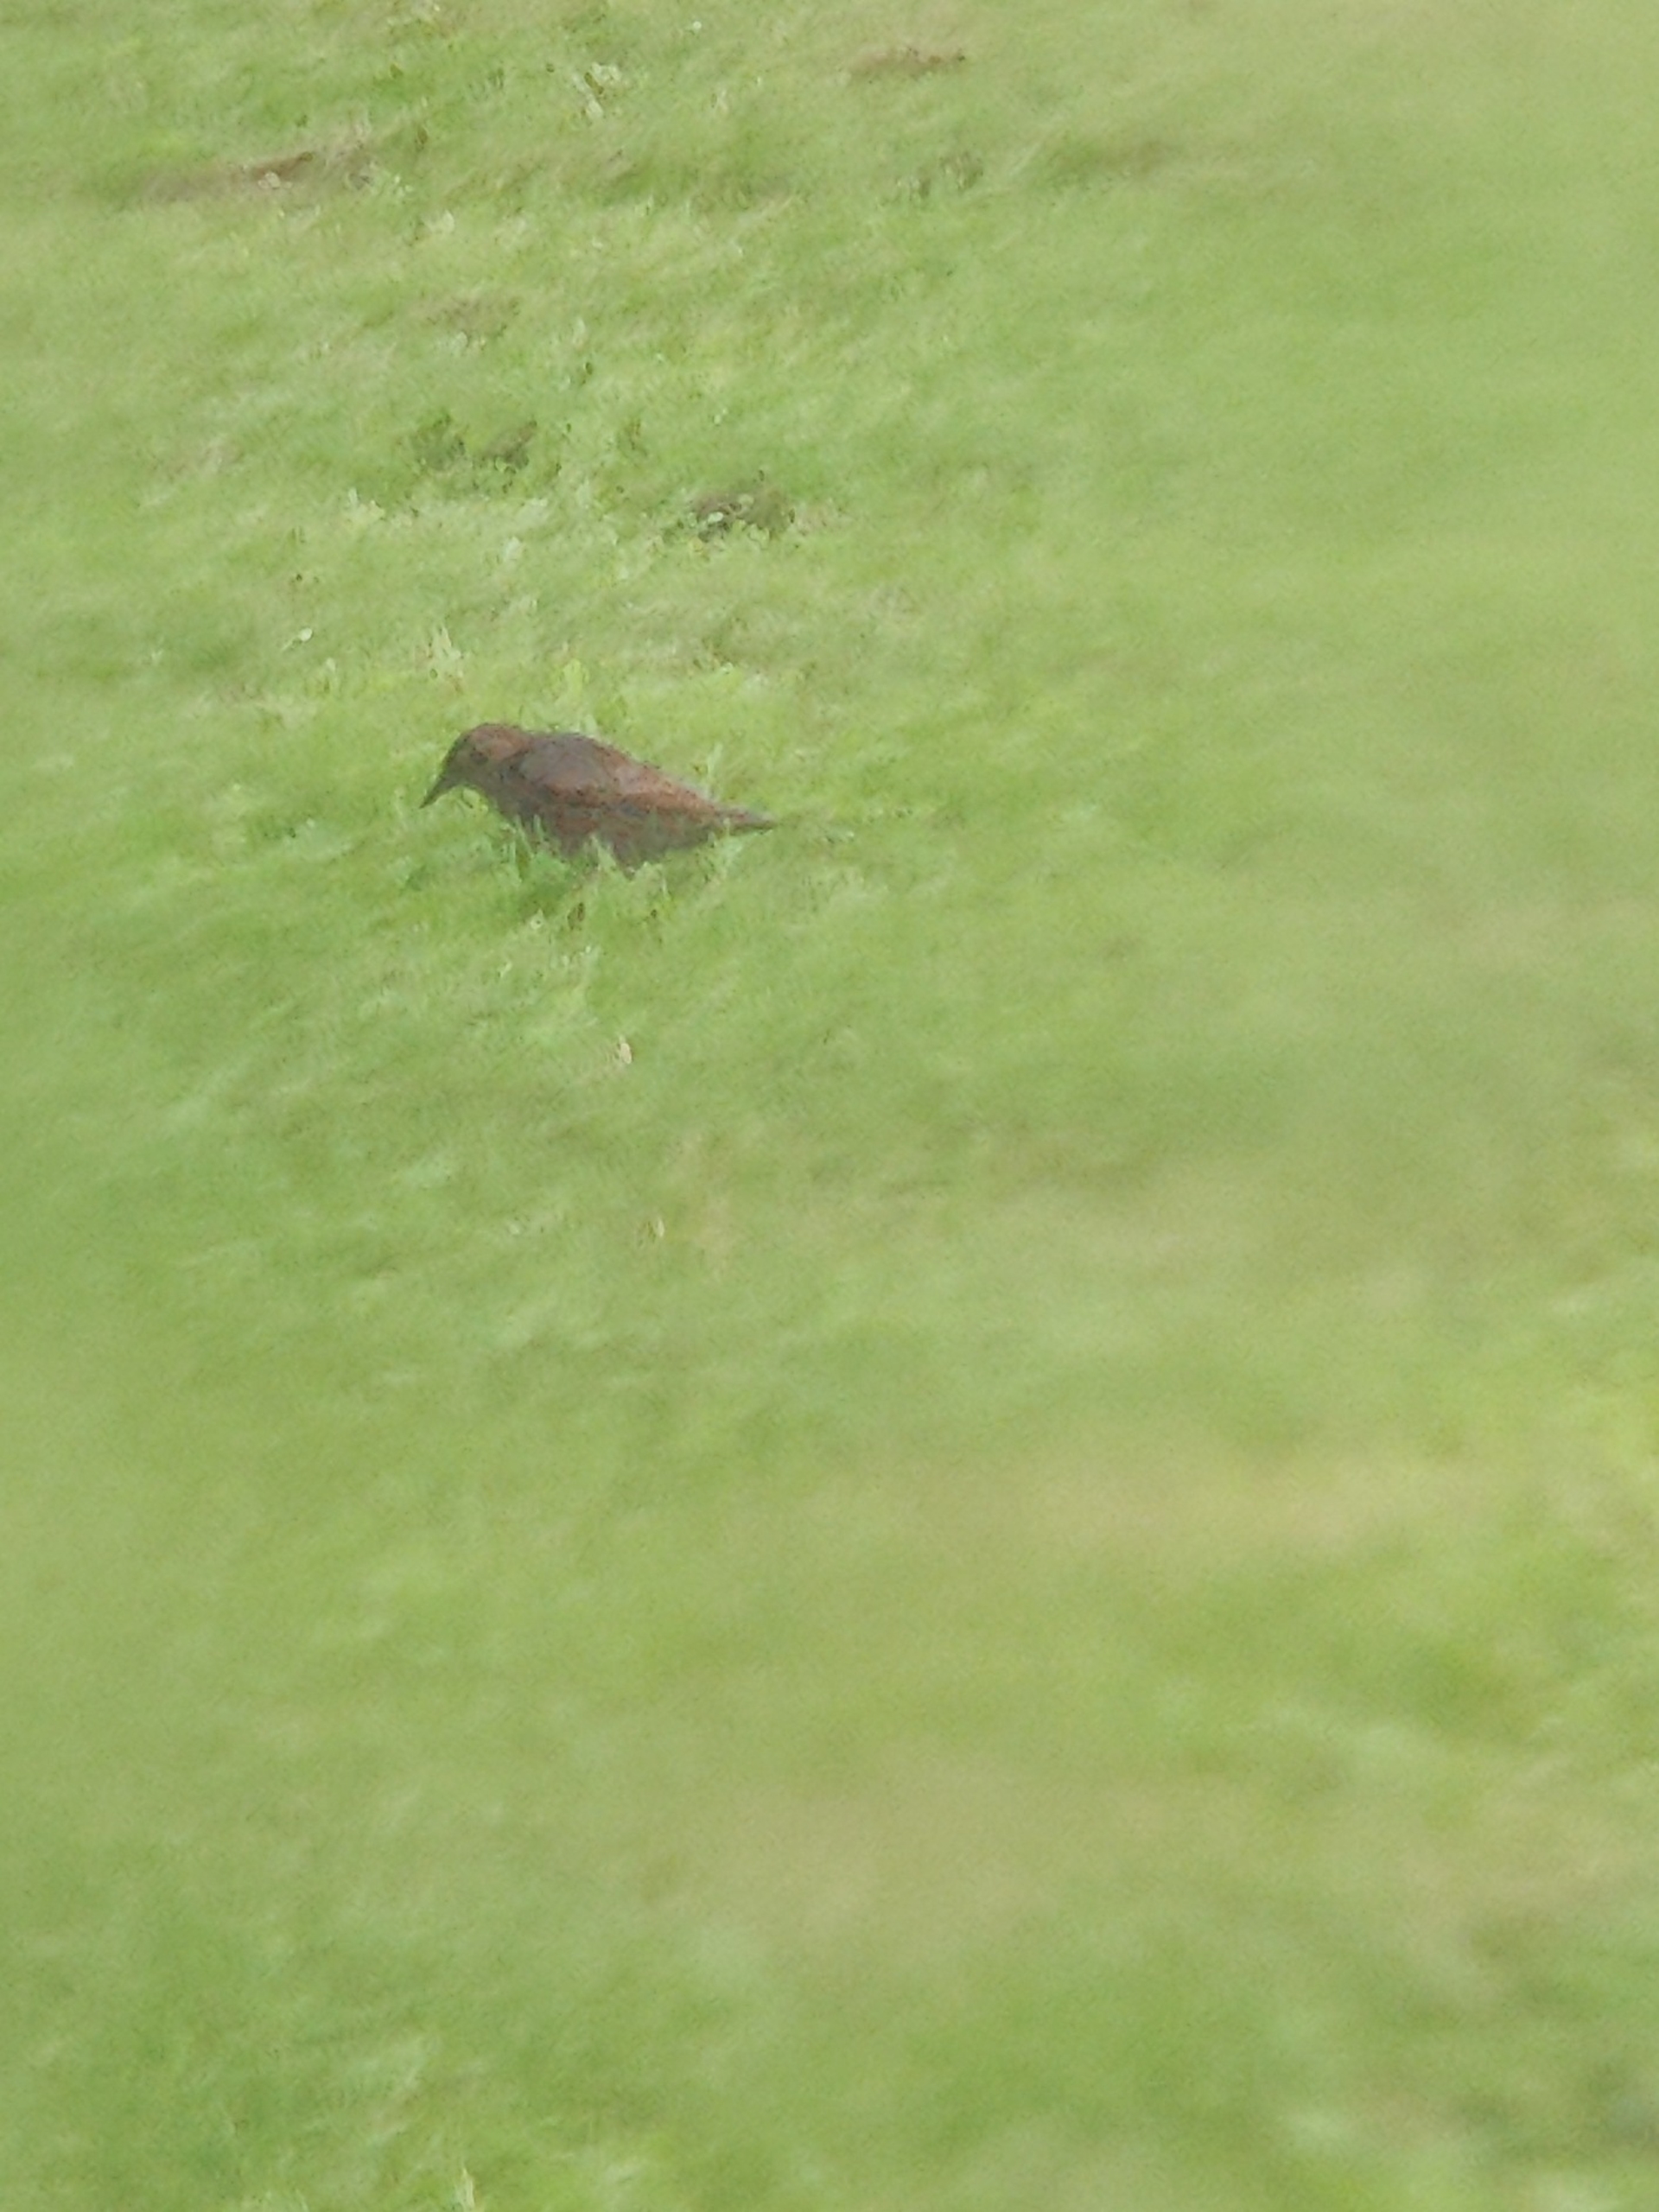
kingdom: Animalia
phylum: Chordata
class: Aves
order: Passeriformes
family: Sturnidae
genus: Sturnus
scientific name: Sturnus vulgaris
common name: Stær
